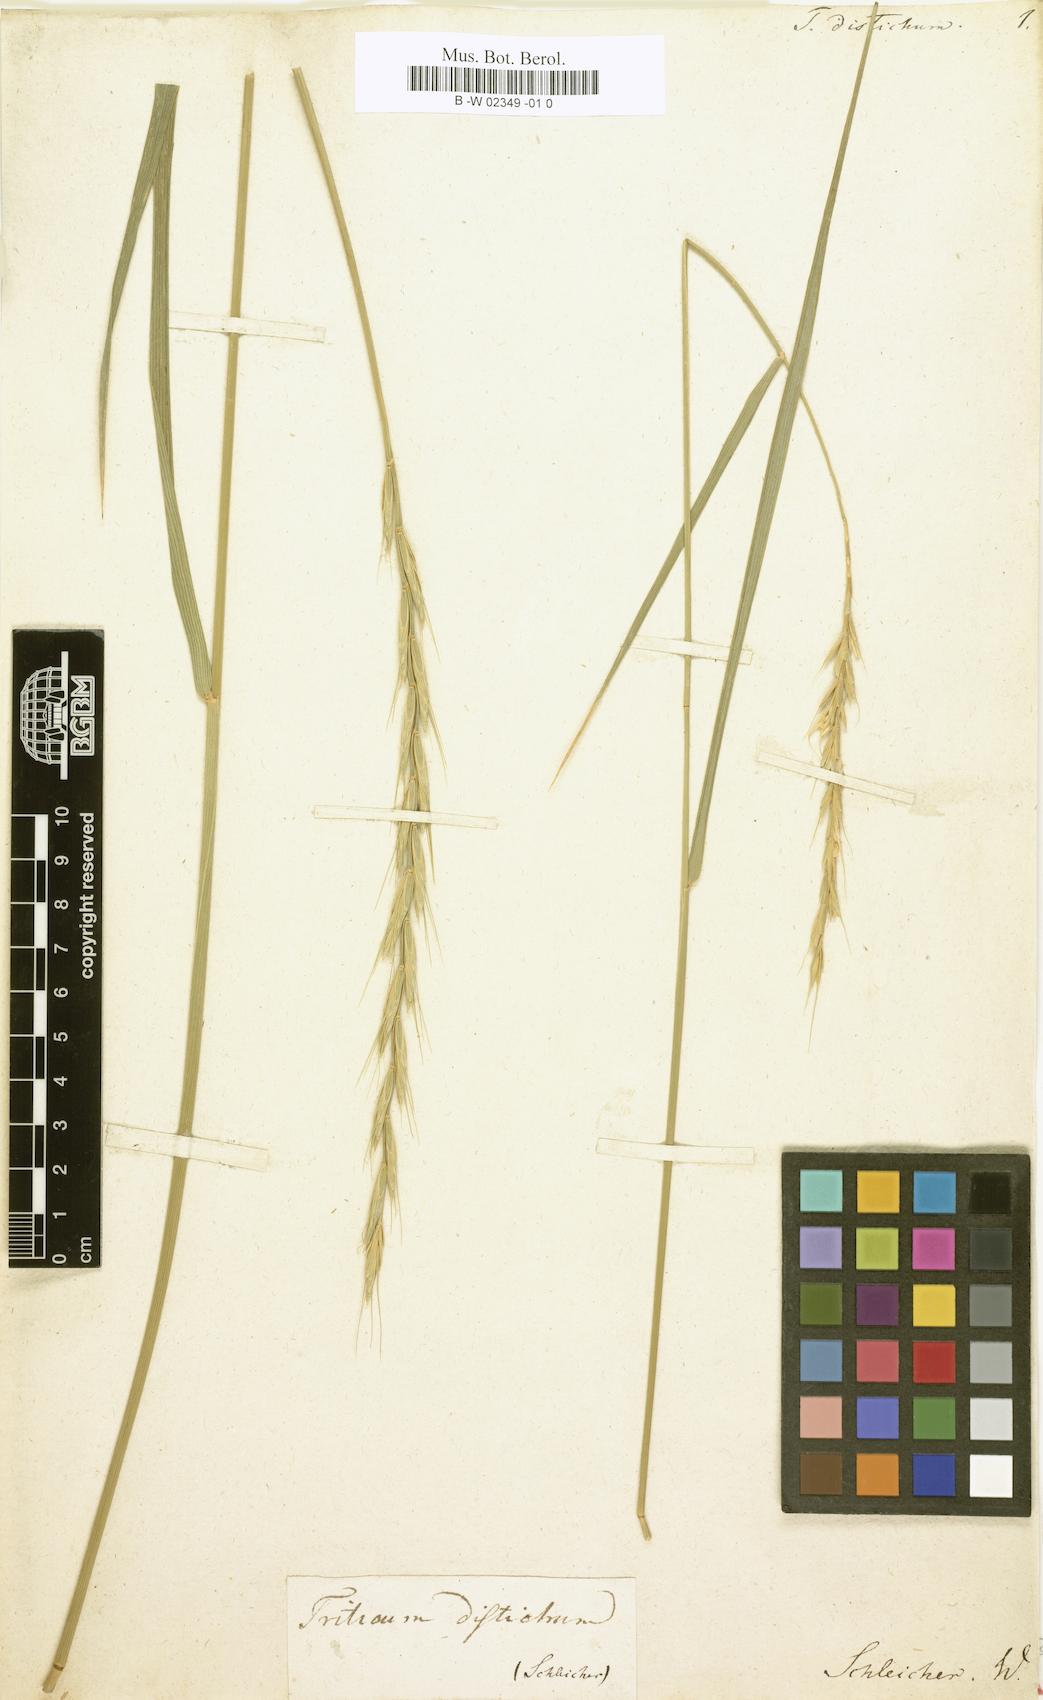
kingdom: Plantae
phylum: Tracheophyta
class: Liliopsida
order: Poales
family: Poaceae
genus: Thinopyrum
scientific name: Thinopyrum intermedium
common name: Intermediate wheatgrass
